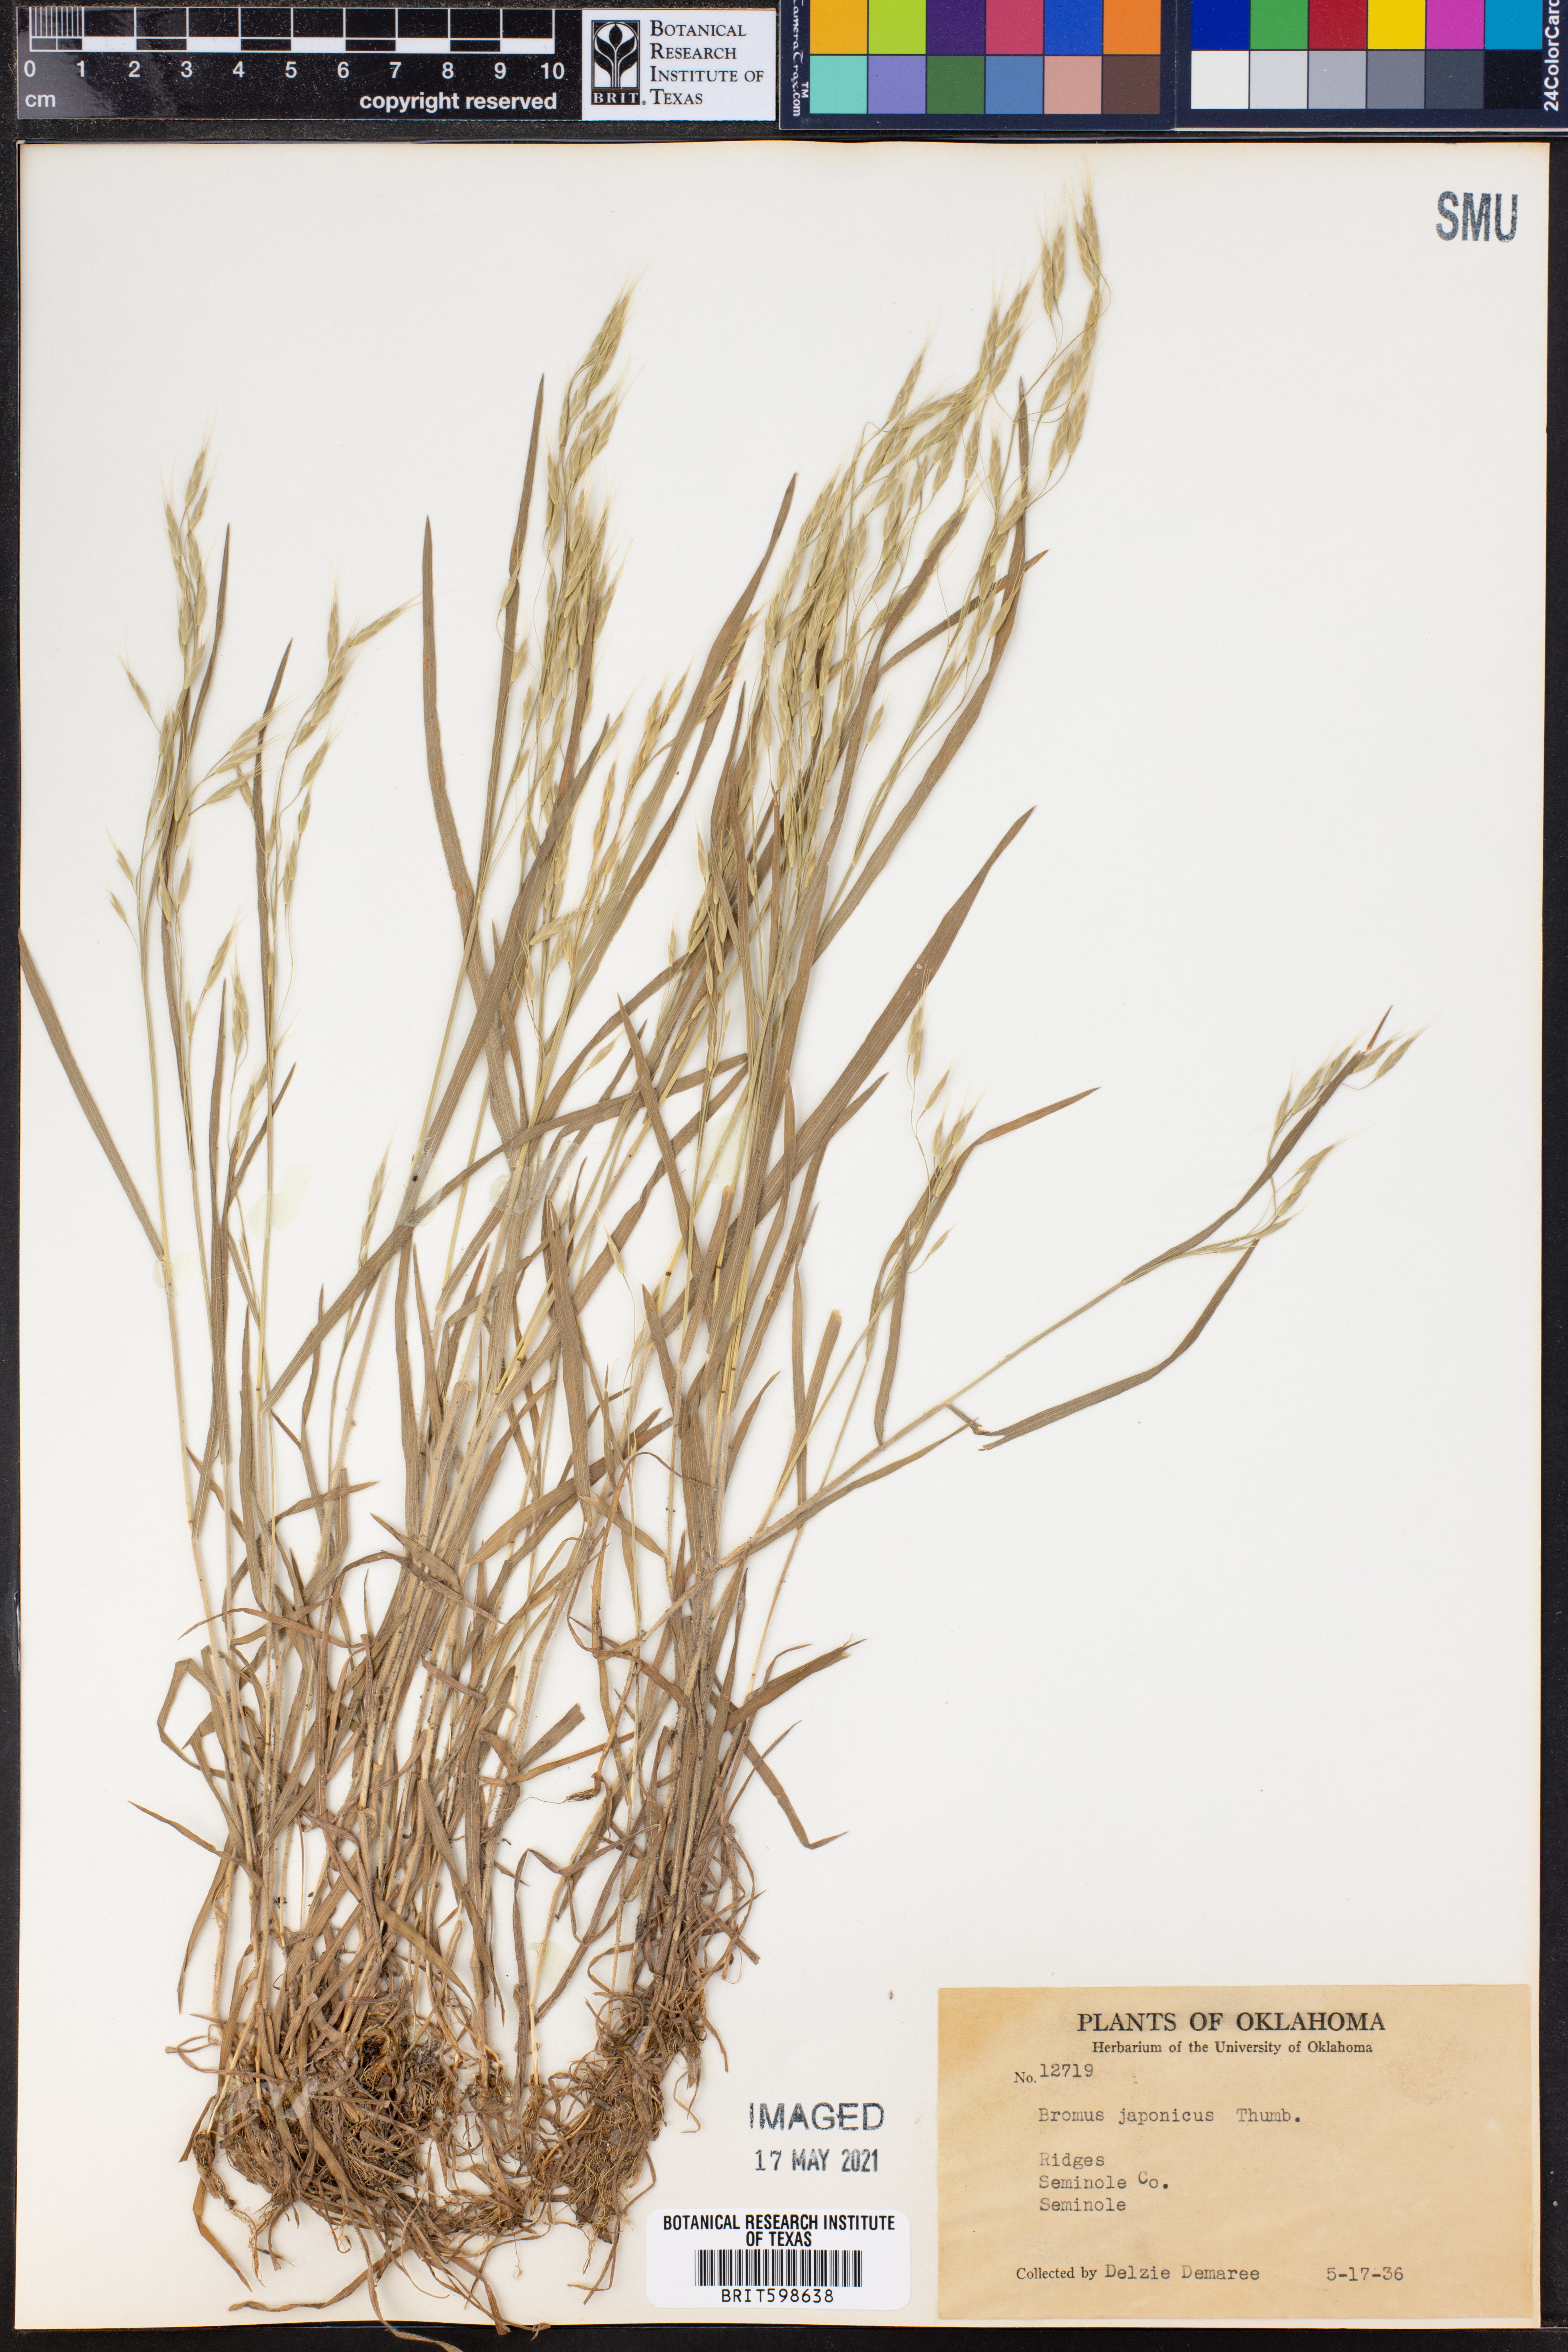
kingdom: Plantae
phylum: Tracheophyta
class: Liliopsida
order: Poales
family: Poaceae
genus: Bromus
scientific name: Bromus japonicus
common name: Japanese brome
